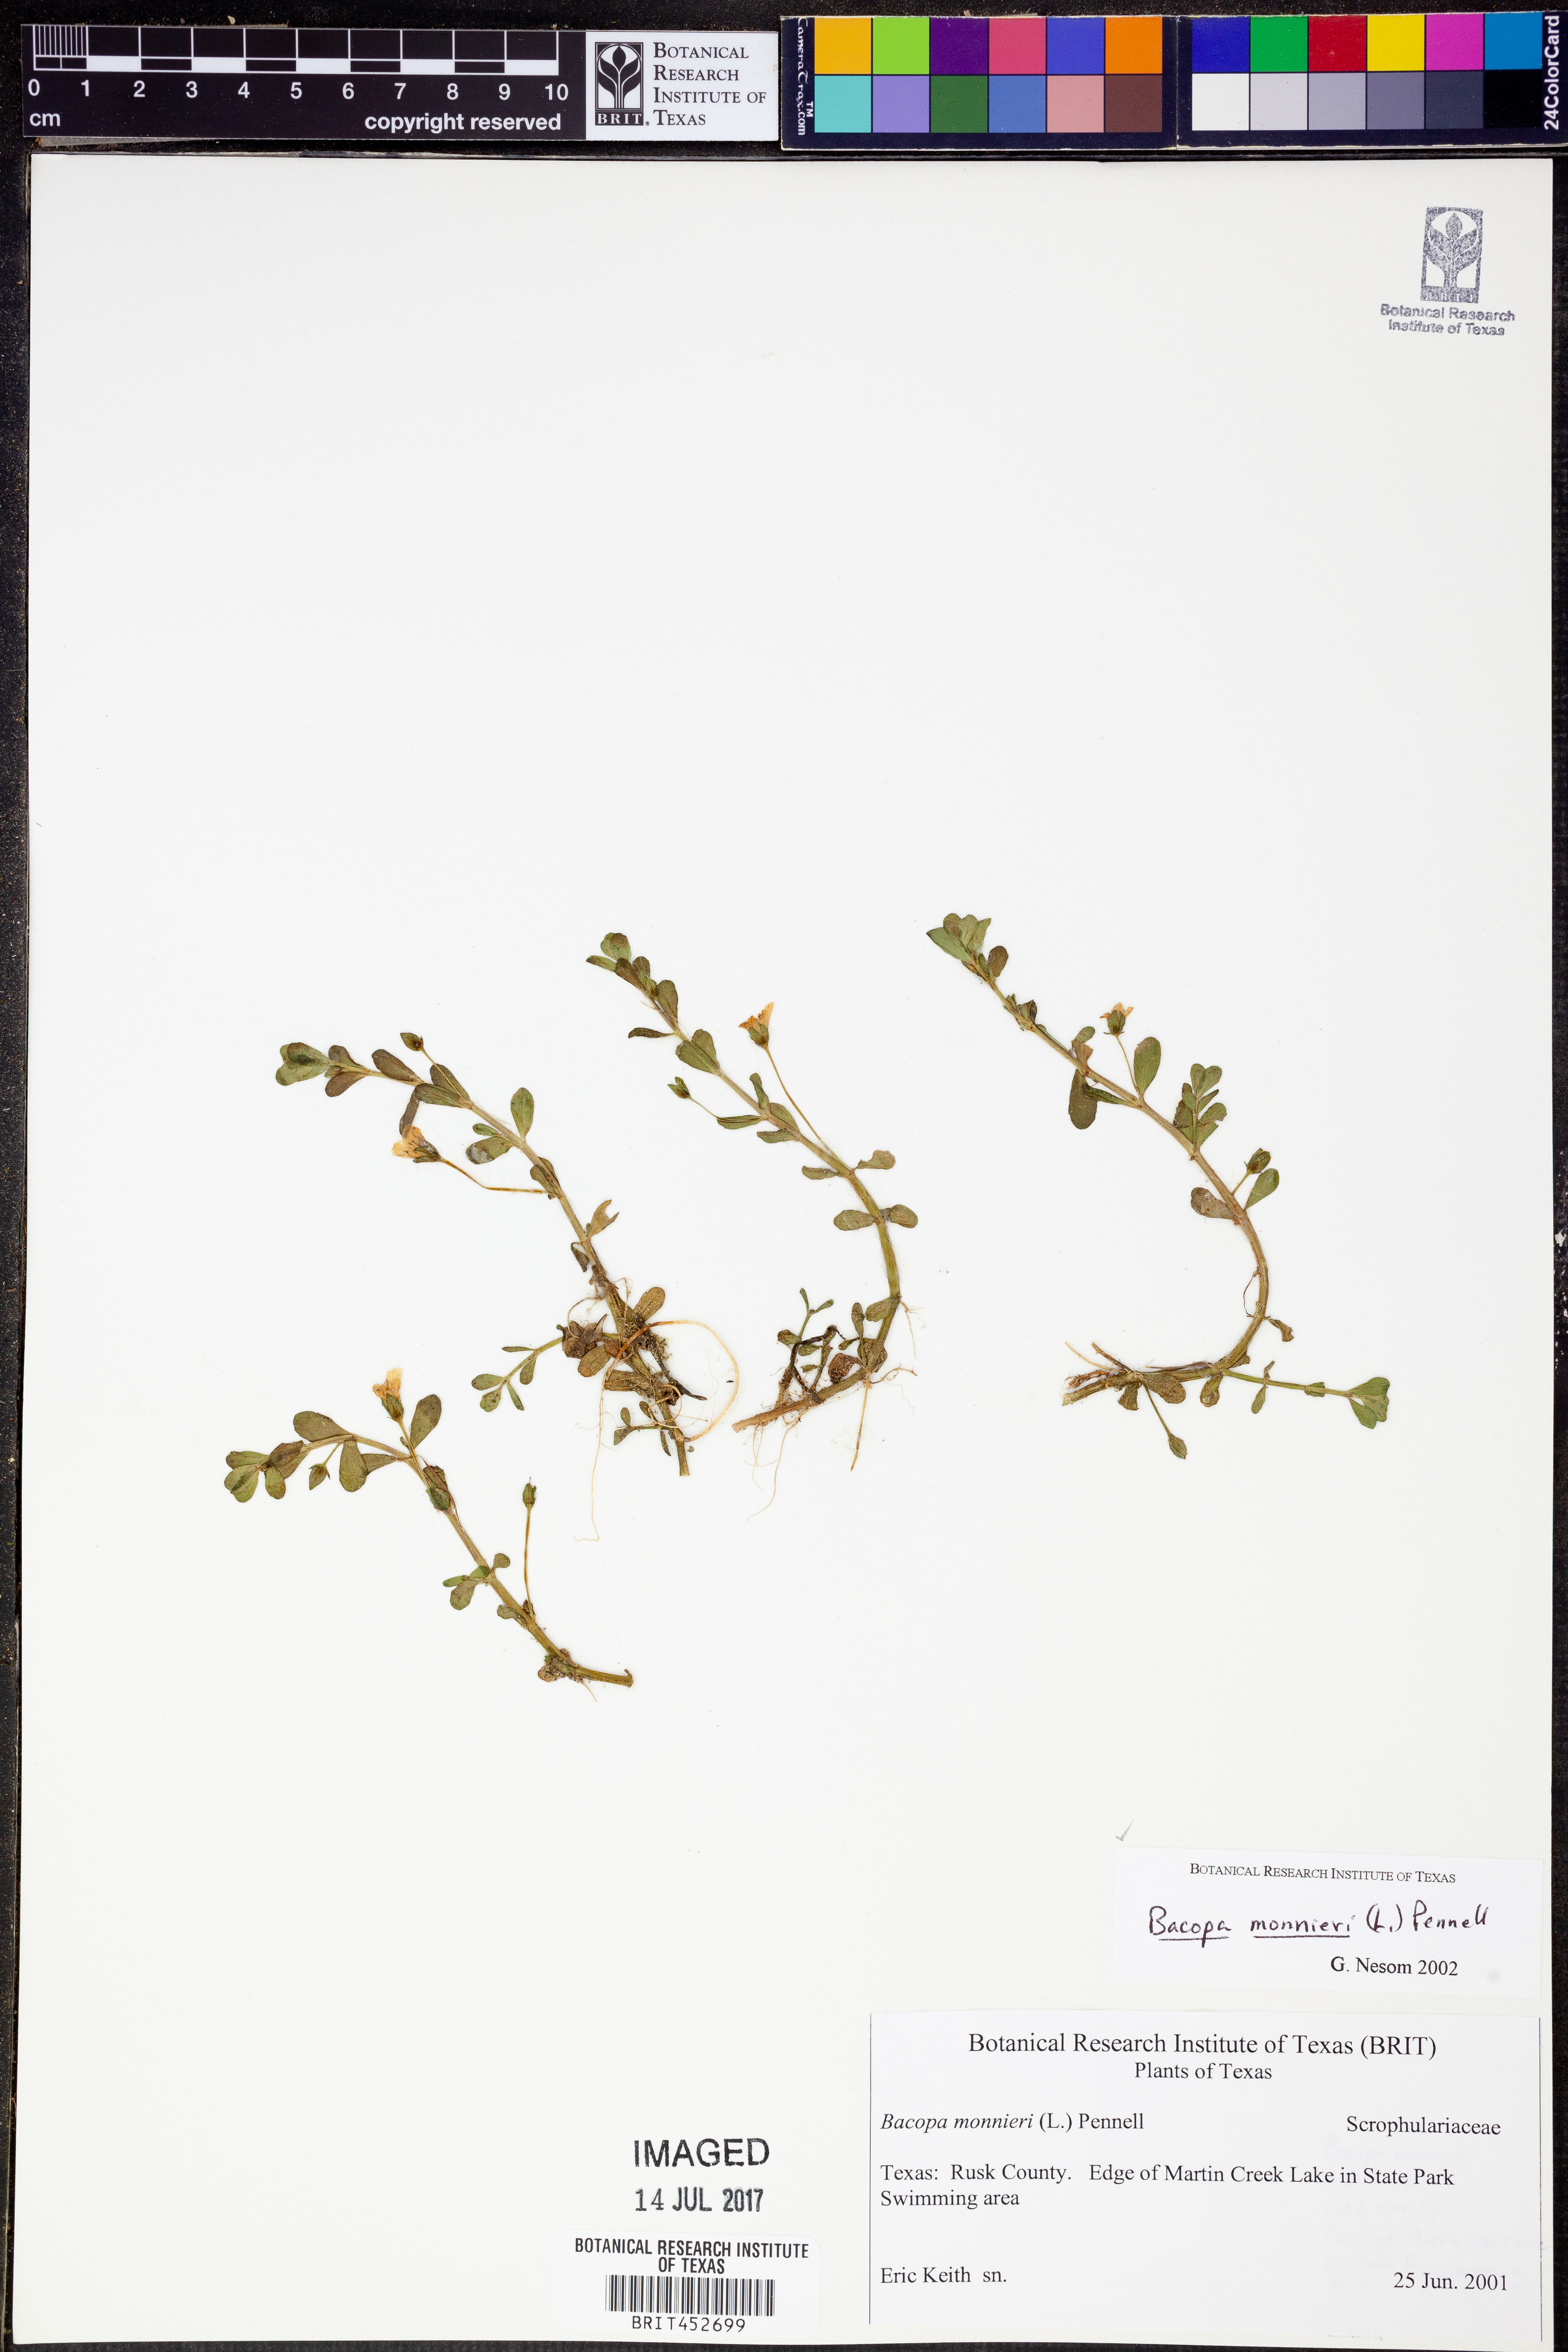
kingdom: Plantae
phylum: Tracheophyta
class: Magnoliopsida
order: Lamiales
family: Plantaginaceae
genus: Bacopa
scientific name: Bacopa monnieri
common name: Indian-pennywort
